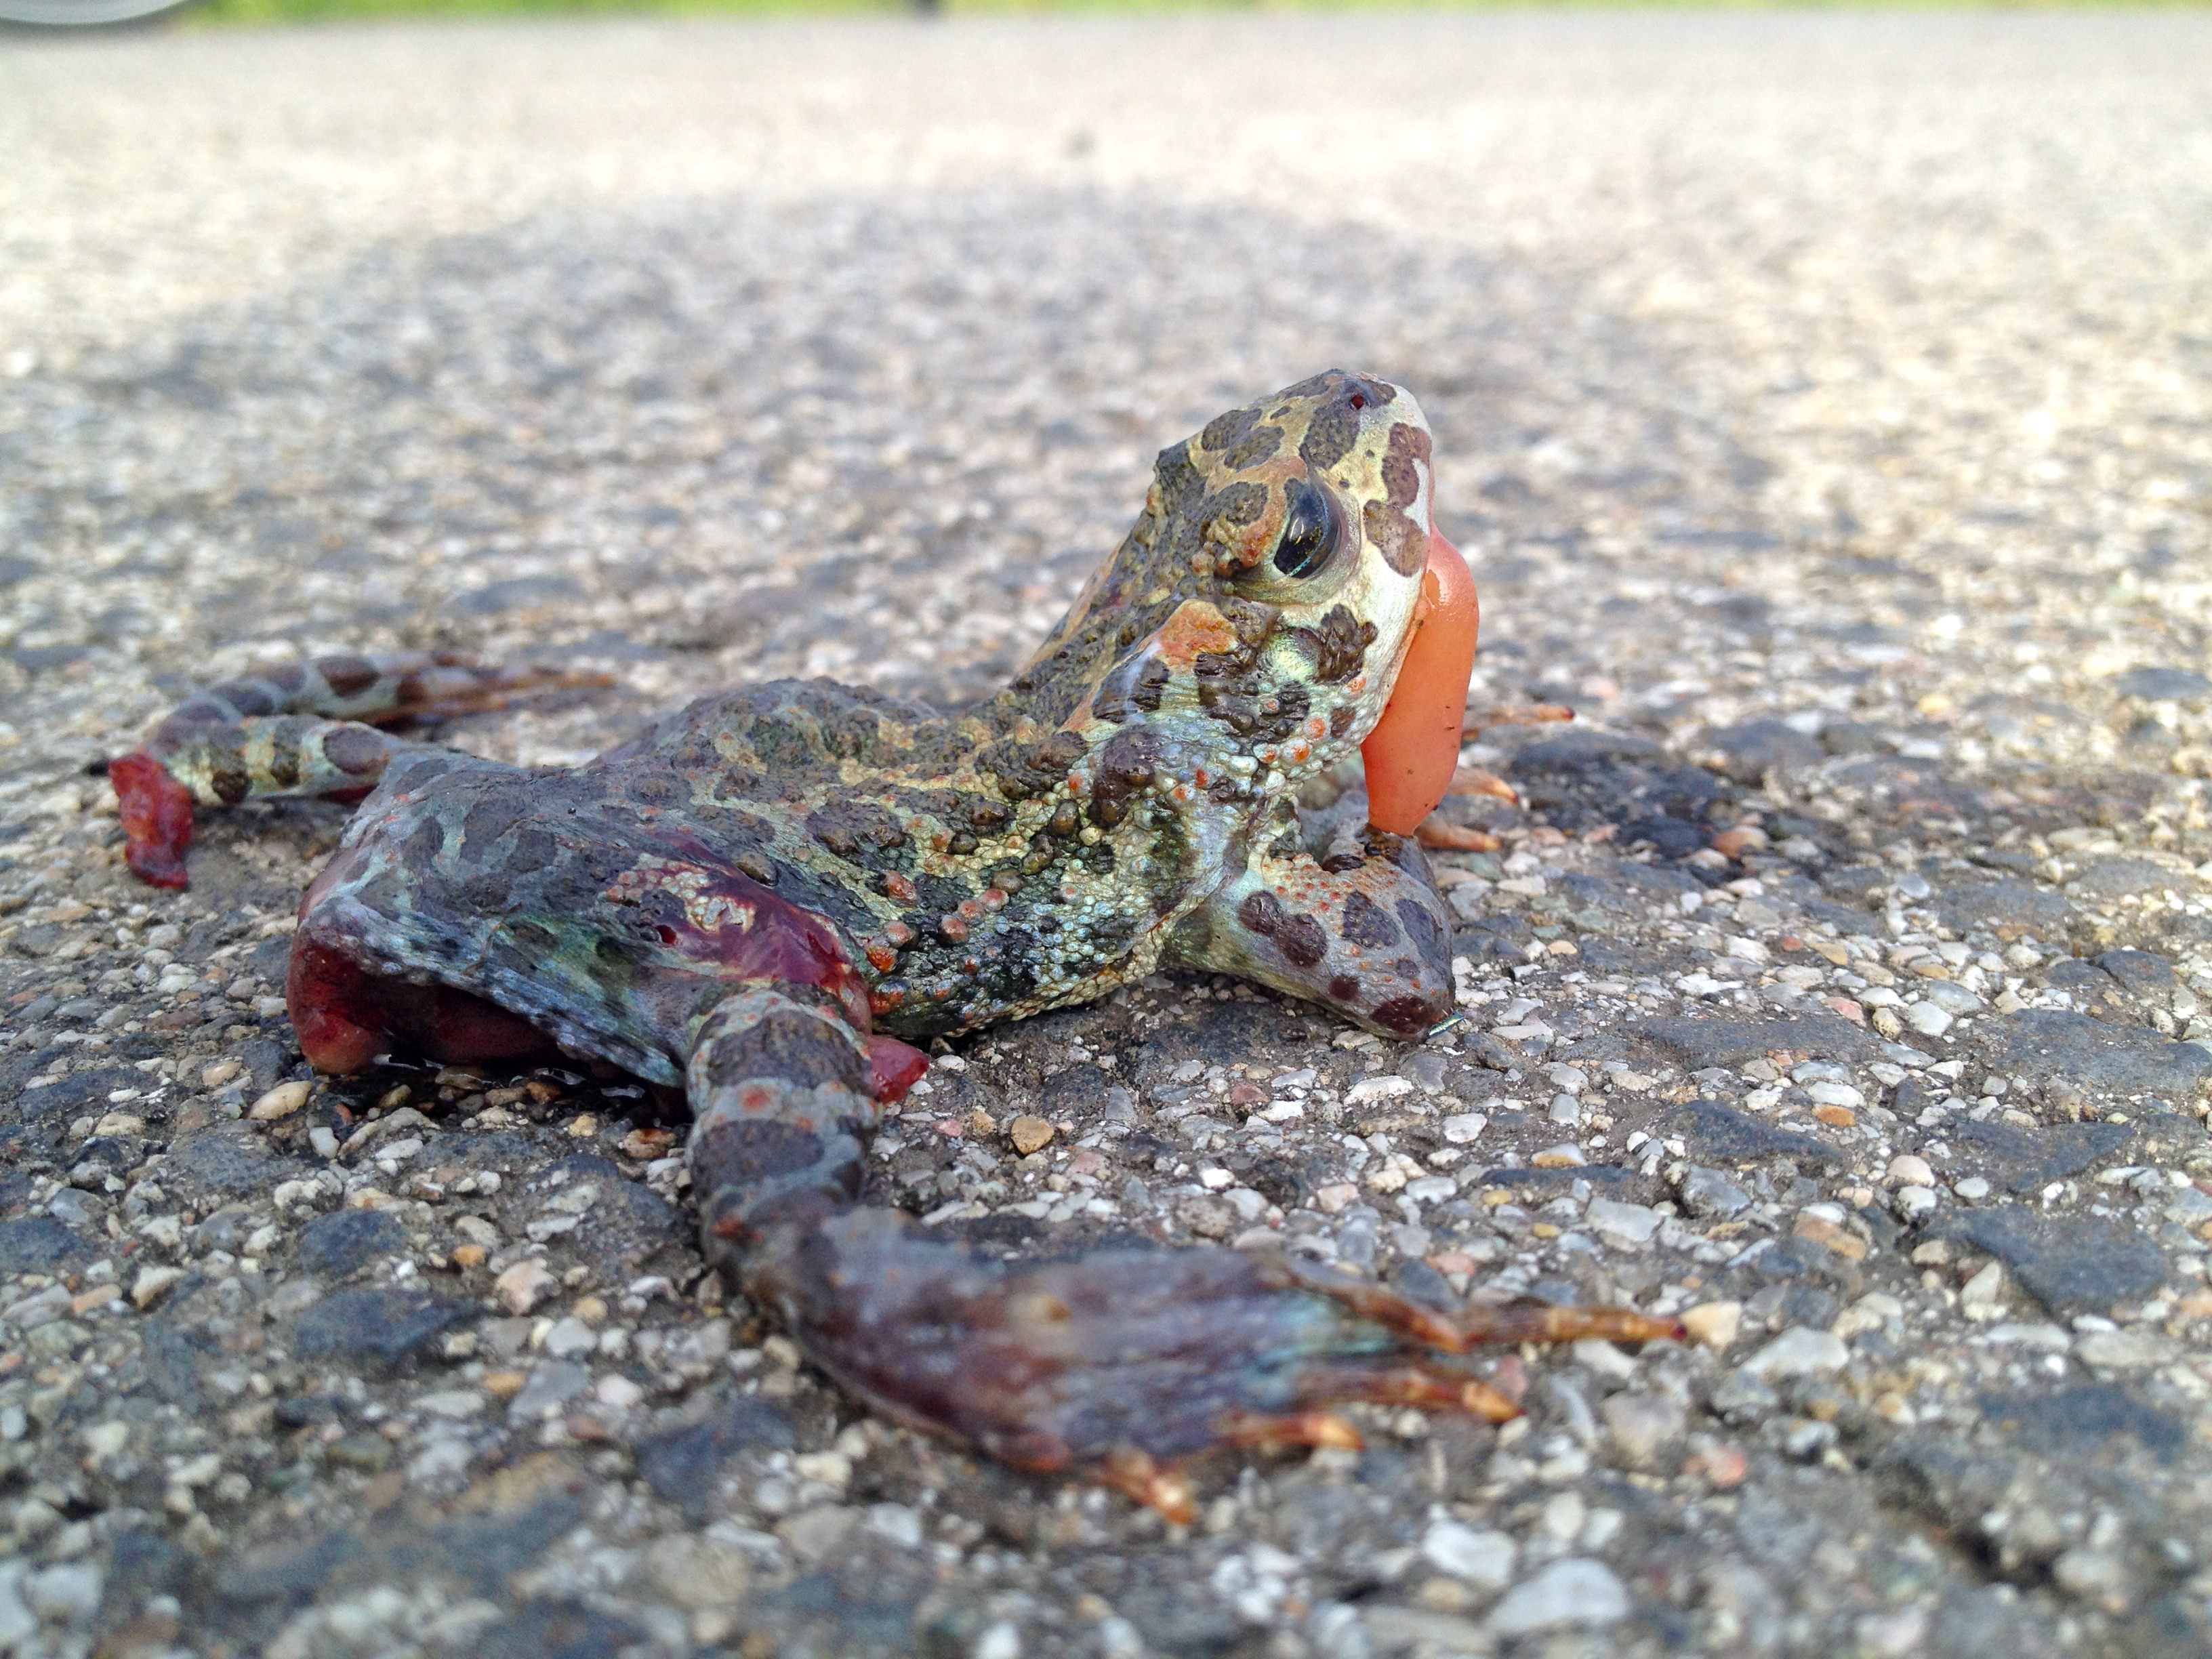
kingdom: Animalia
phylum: Chordata
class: Amphibia
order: Anura
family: Bufonidae
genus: Bufotes
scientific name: Bufotes viridis
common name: European green toad
